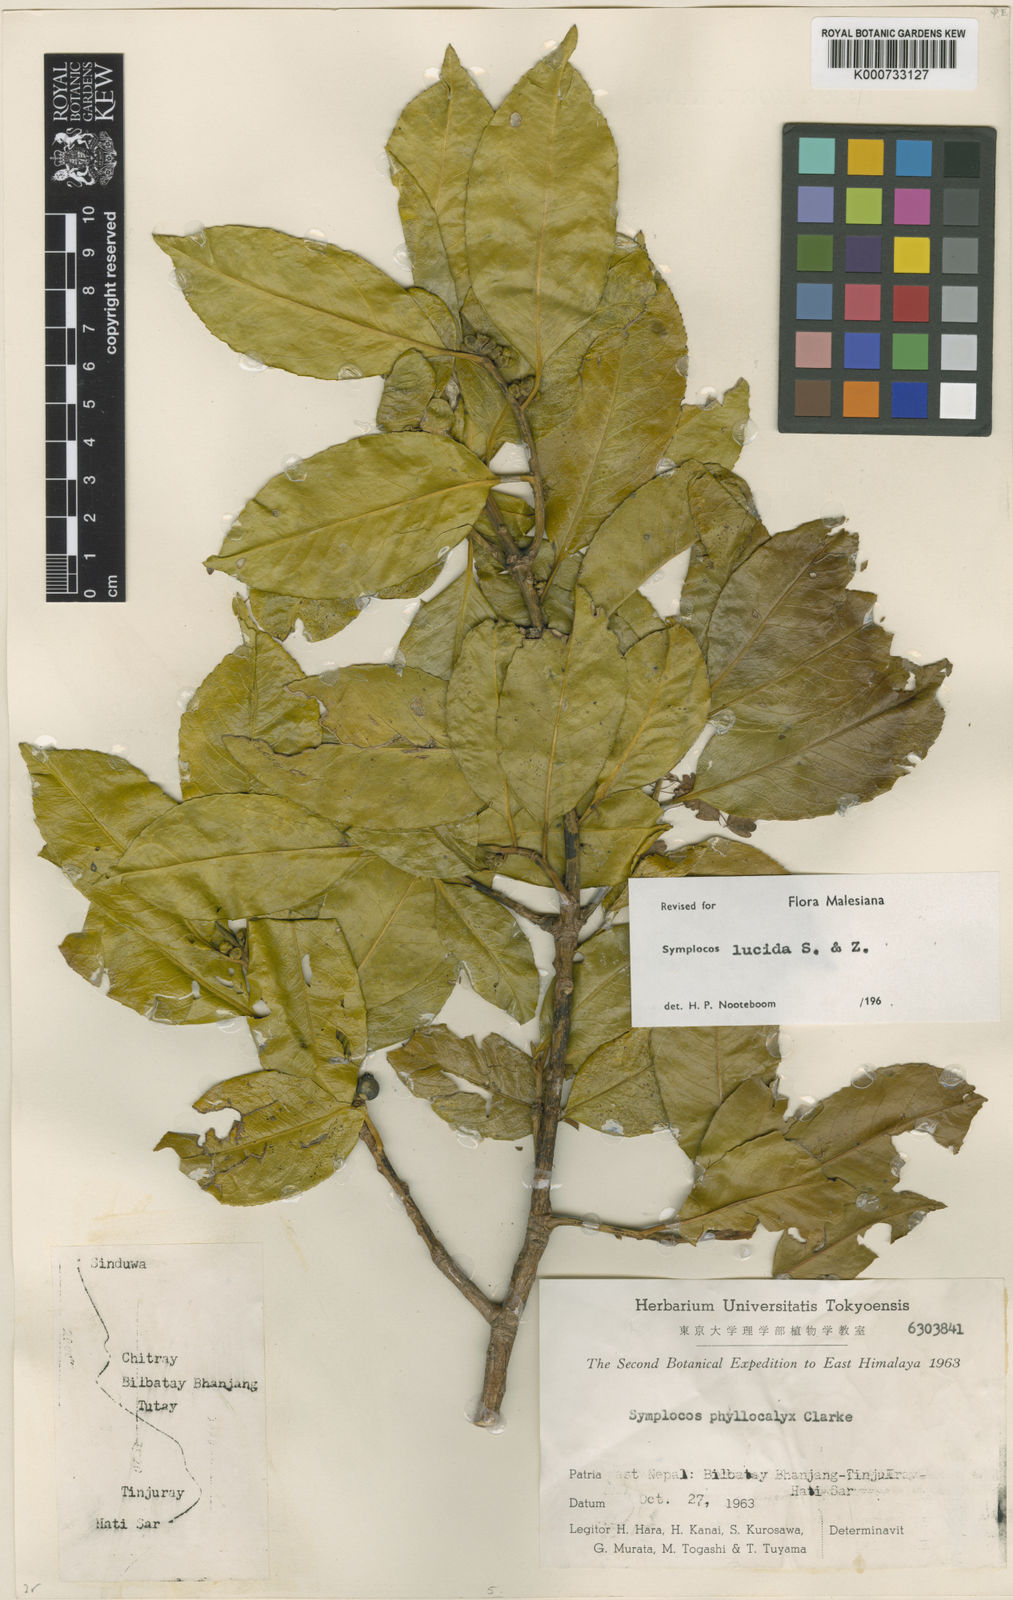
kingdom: Plantae
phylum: Tracheophyta
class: Magnoliopsida
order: Ericales
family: Symplocaceae
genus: Symplocos
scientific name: Symplocos
